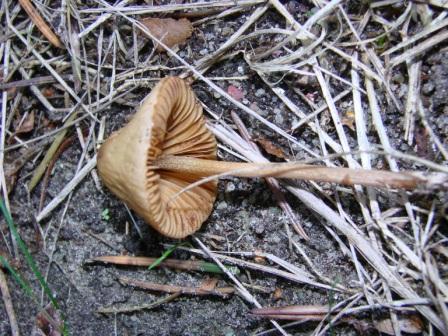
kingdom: Fungi
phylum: Basidiomycota
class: Agaricomycetes
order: Agaricales
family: Bolbitiaceae
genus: Conocybe
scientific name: Conocybe subovalis
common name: hvælvet keglehat
